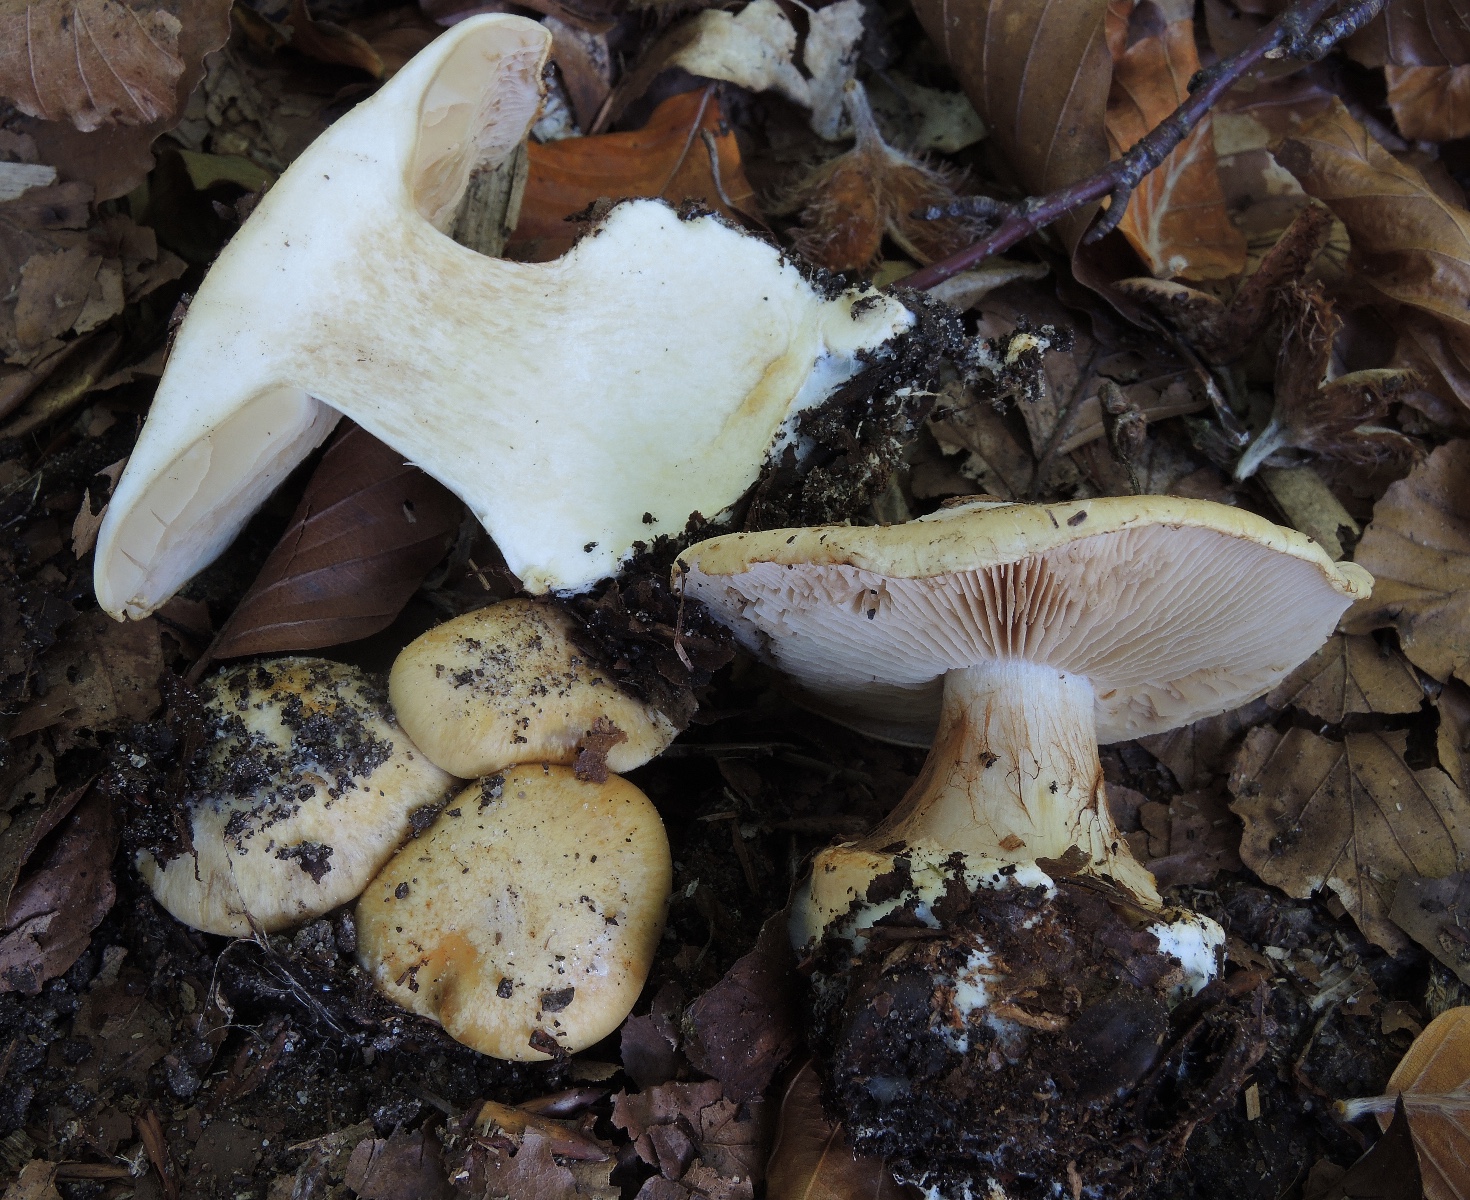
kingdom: Fungi
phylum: Basidiomycota
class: Agaricomycetes
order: Agaricales
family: Cortinariaceae
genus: Phlegmacium
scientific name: Phlegmacium xantho-ochraceum
